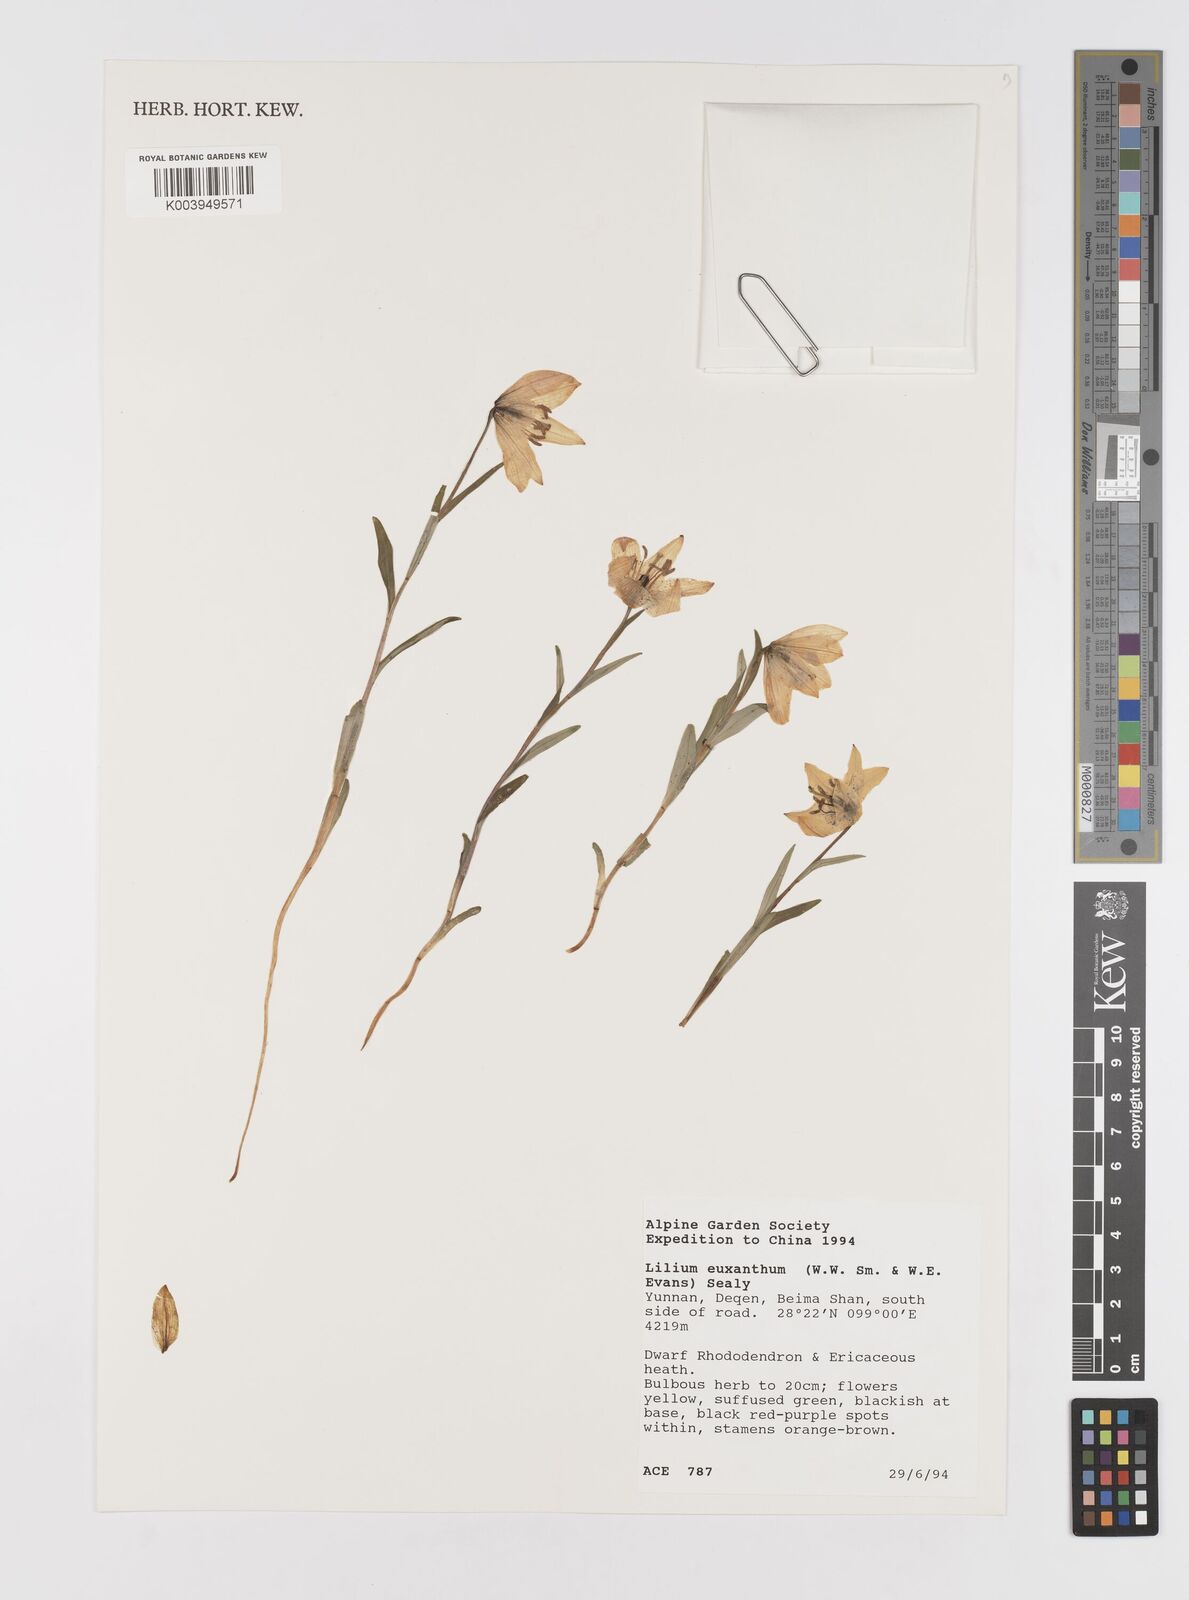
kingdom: Plantae
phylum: Tracheophyta
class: Liliopsida
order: Liliales
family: Liliaceae
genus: Lilium
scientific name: Lilium nanum
